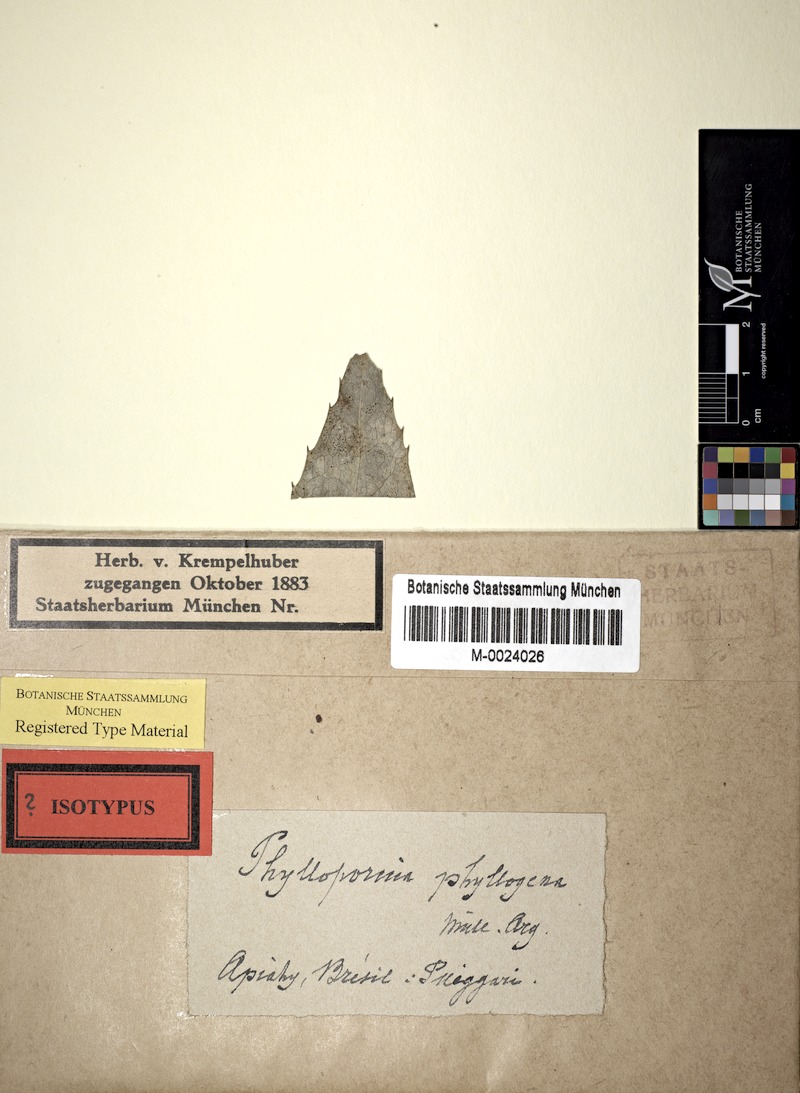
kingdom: Fungi
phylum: Ascomycota
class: Dothideomycetes
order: Strigulales
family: Strigulaceae
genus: Phylloporis
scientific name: Phylloporis phyllogena
